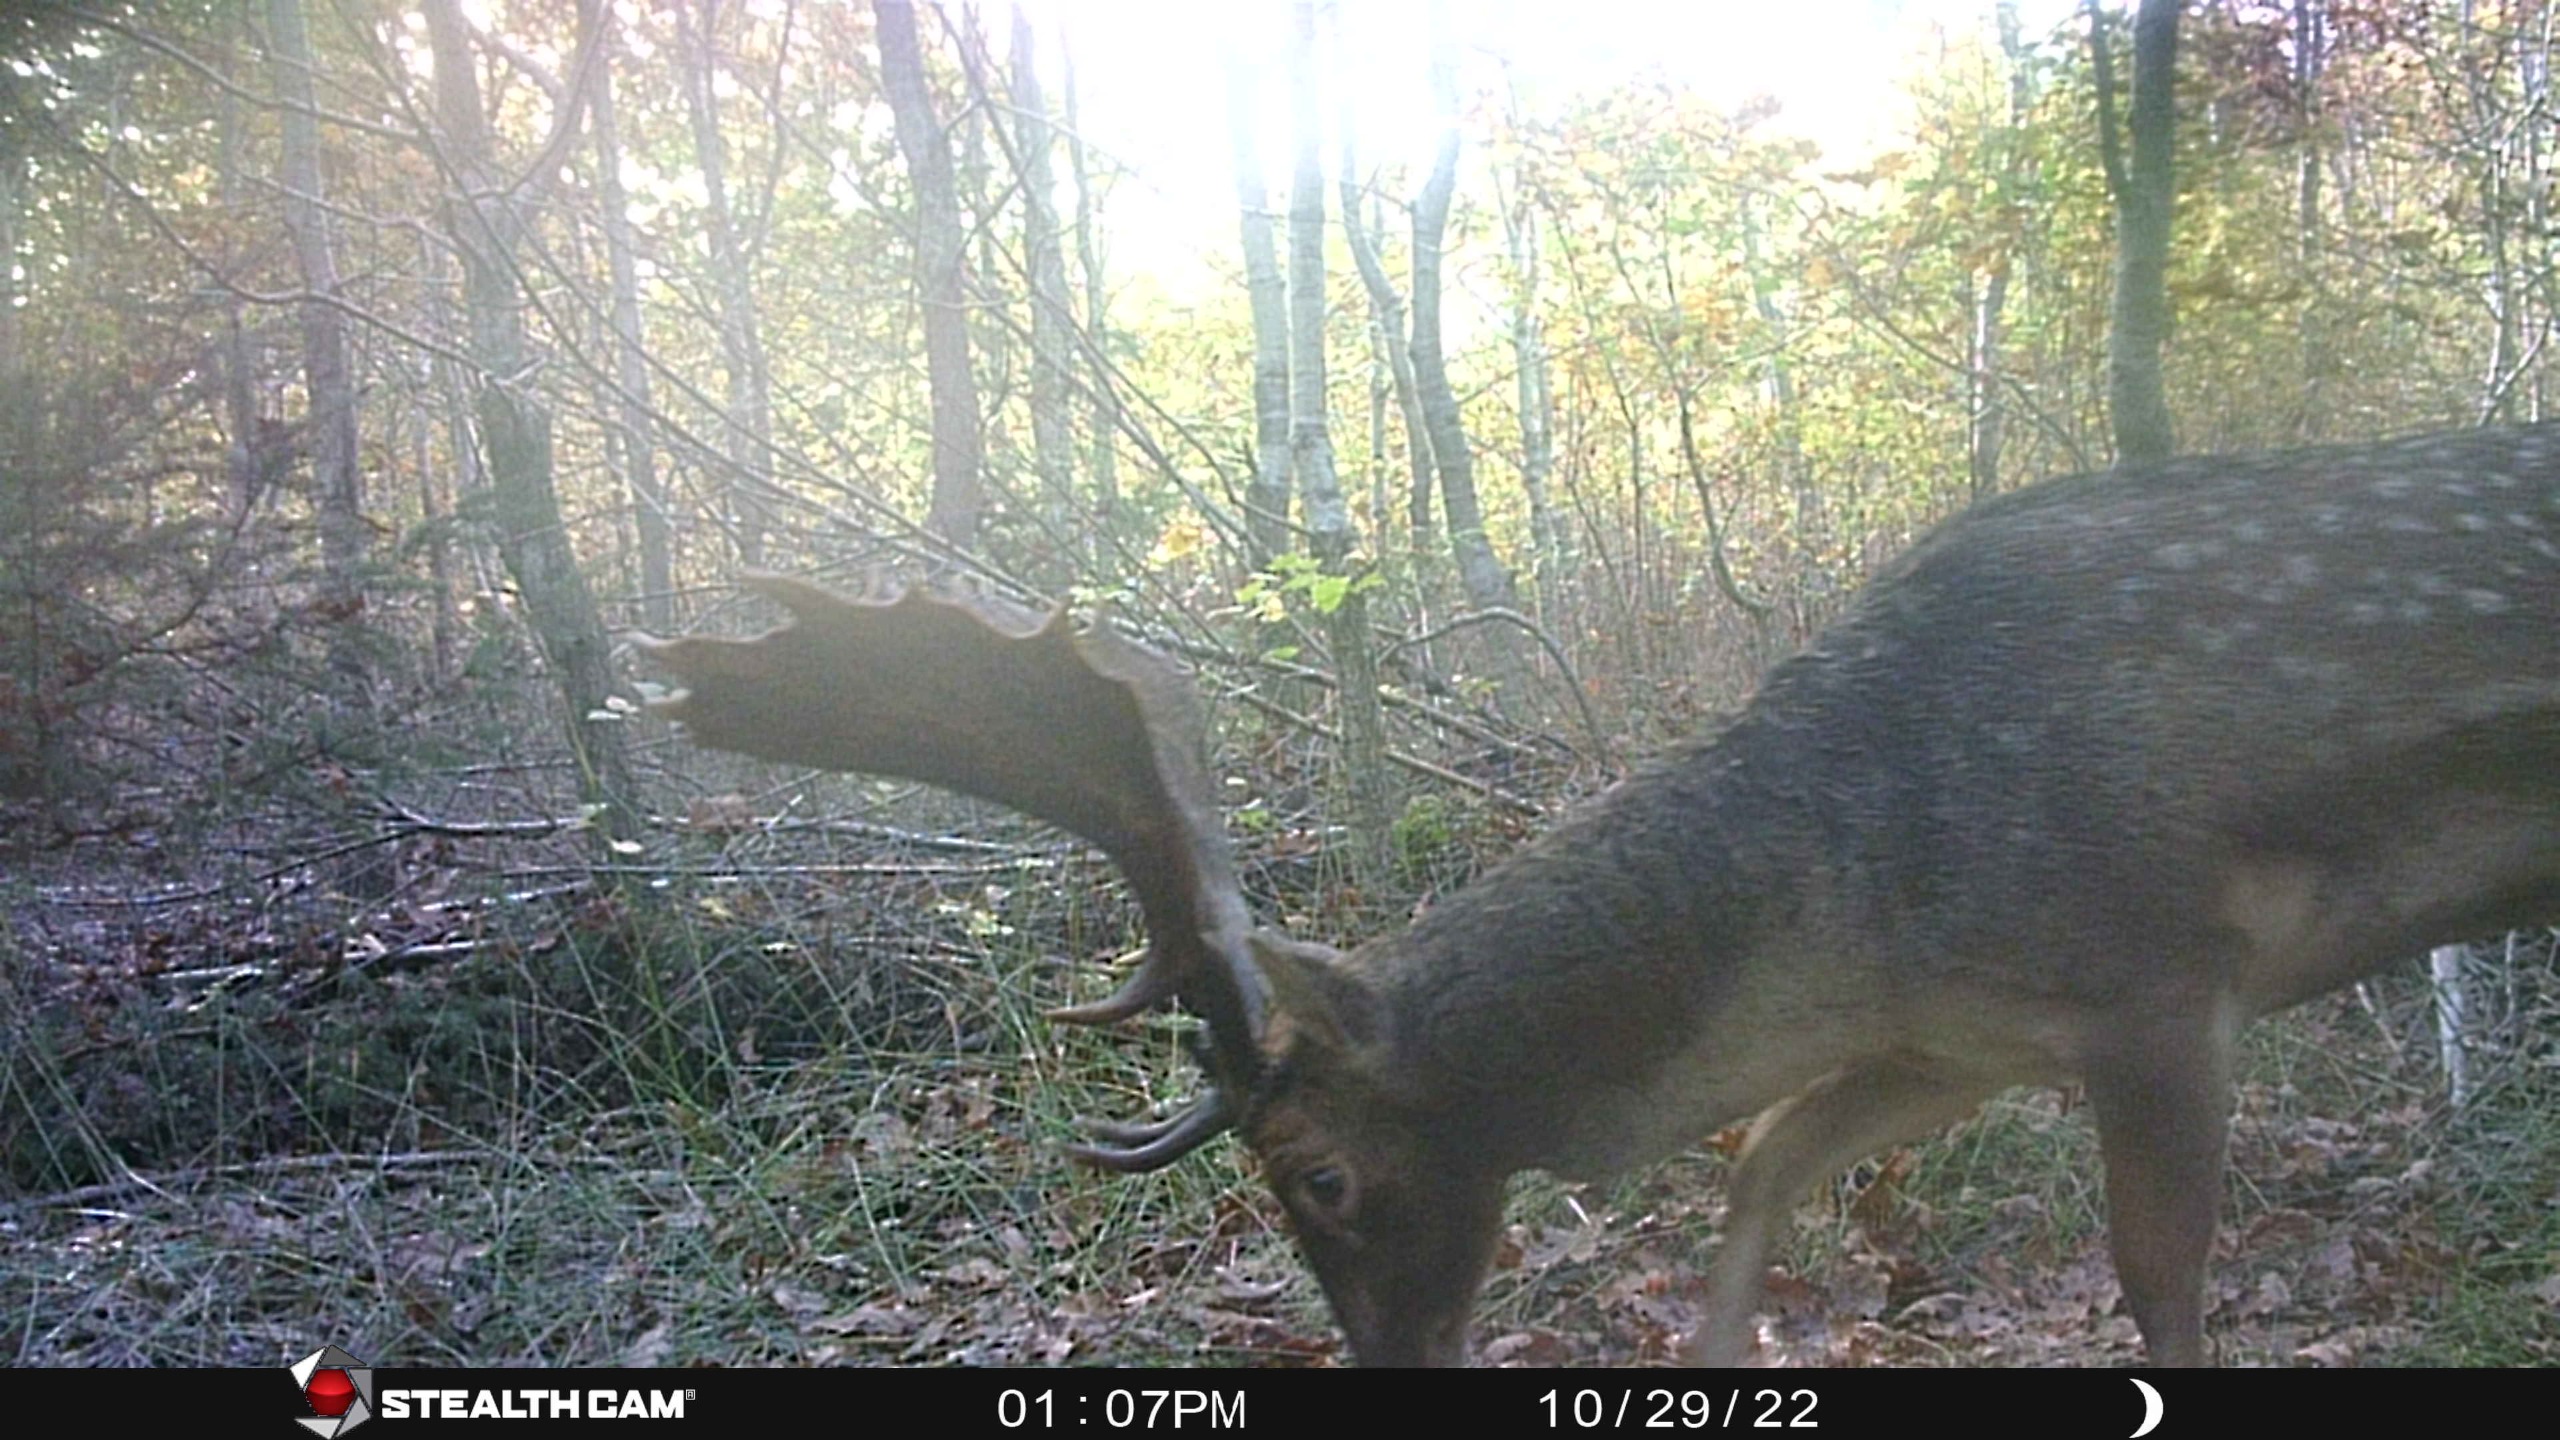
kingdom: Animalia
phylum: Chordata
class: Mammalia
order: Artiodactyla
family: Cervidae
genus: Dama
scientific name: Dama dama
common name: Dådyr
